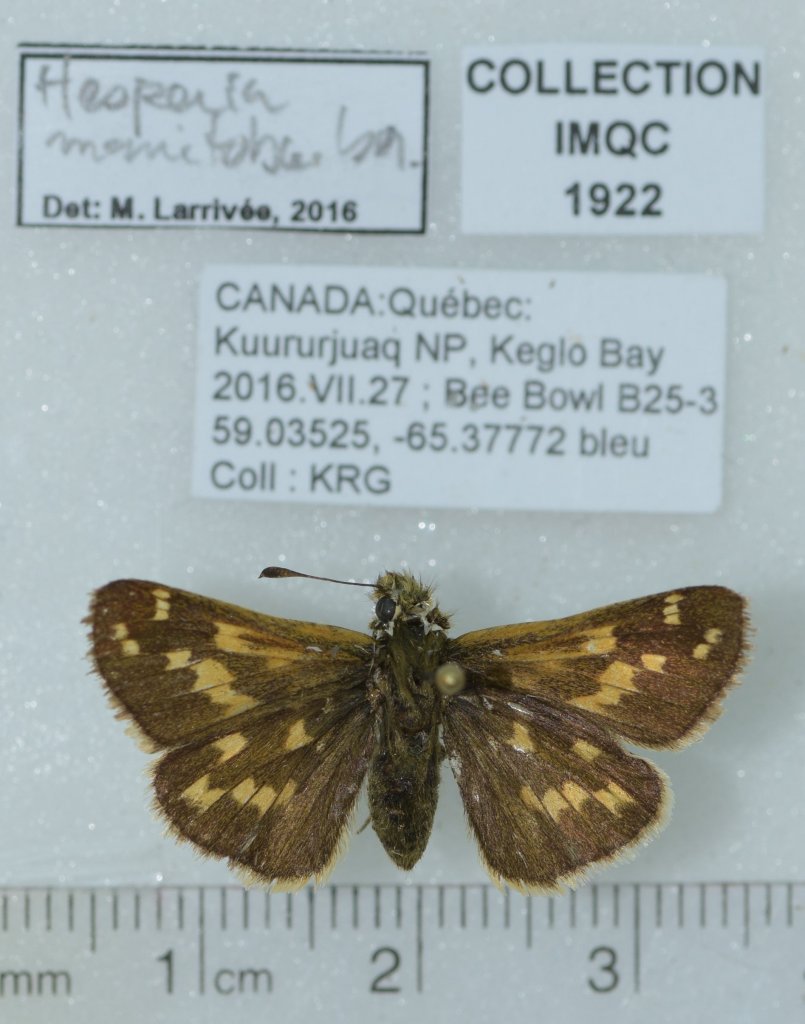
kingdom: Animalia
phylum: Arthropoda
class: Insecta
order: Lepidoptera
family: Hesperiidae
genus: Hesperia
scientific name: Hesperia comma
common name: Common Branded Skipper
